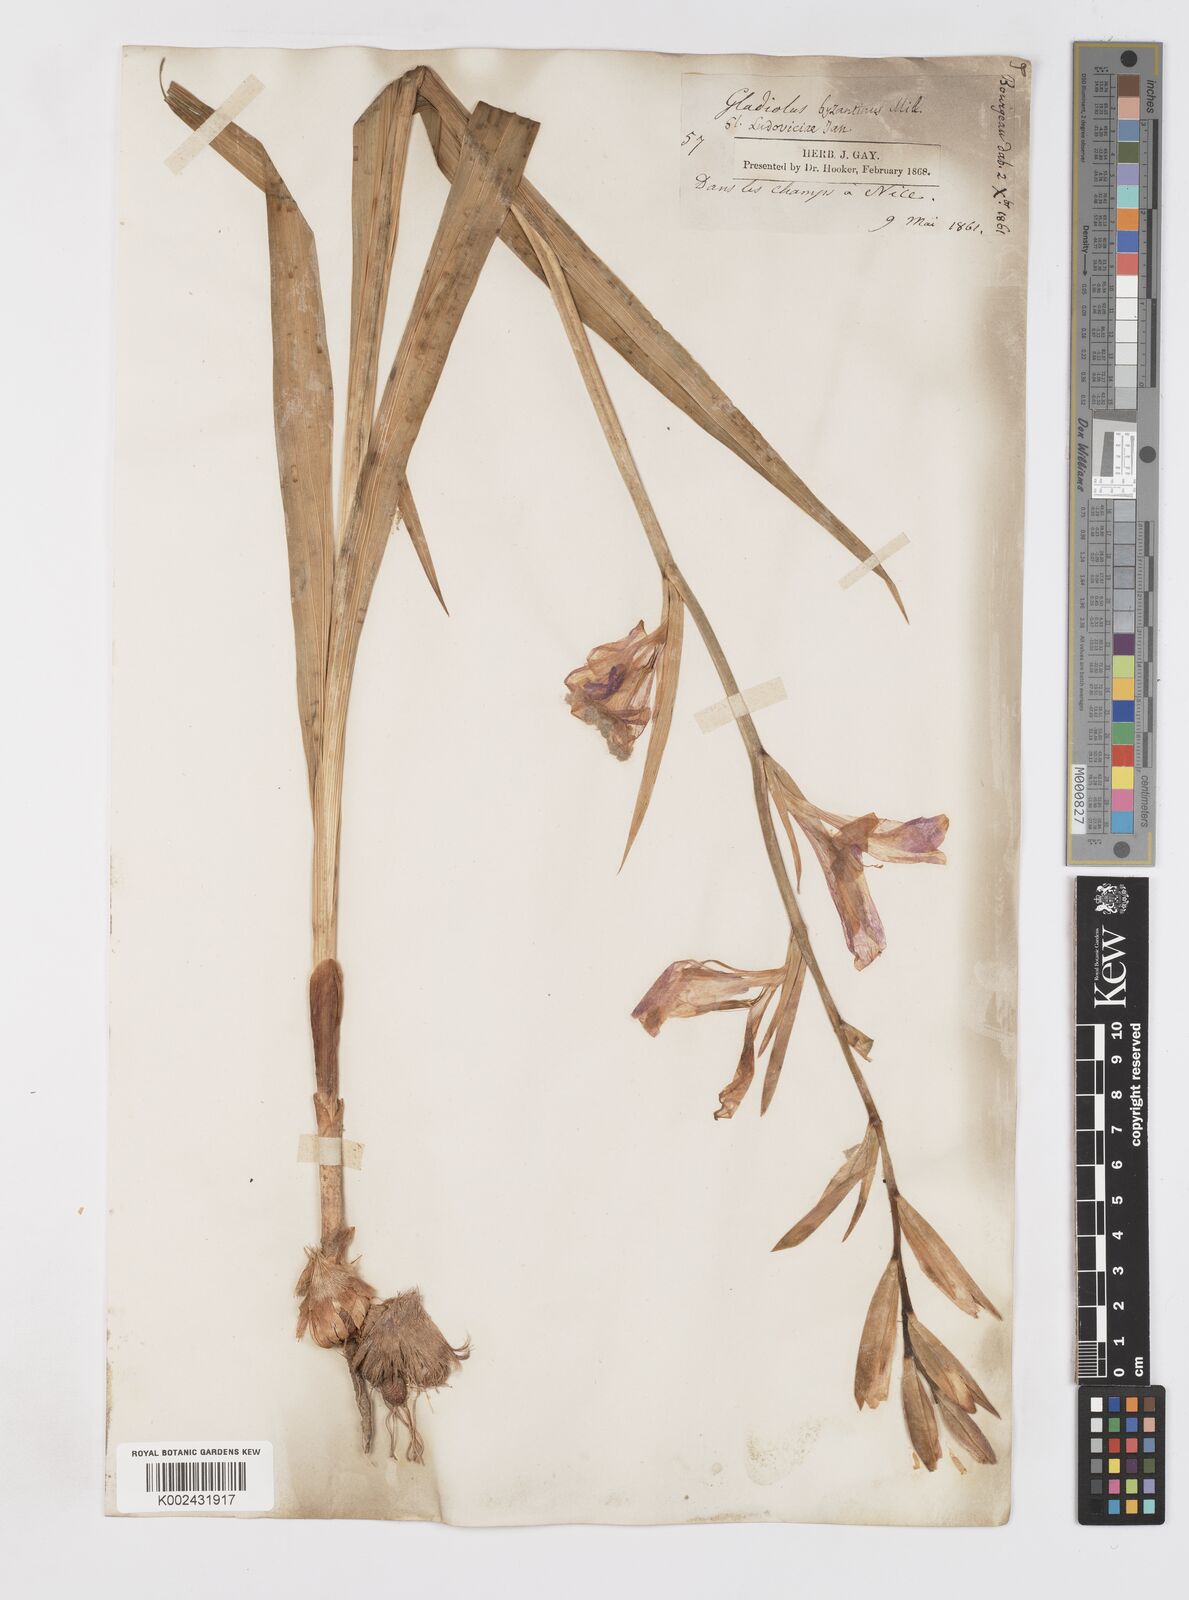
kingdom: Plantae
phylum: Tracheophyta
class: Liliopsida
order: Asparagales
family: Iridaceae
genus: Gladiolus
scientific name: Gladiolus italicus
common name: Field gladiolus
